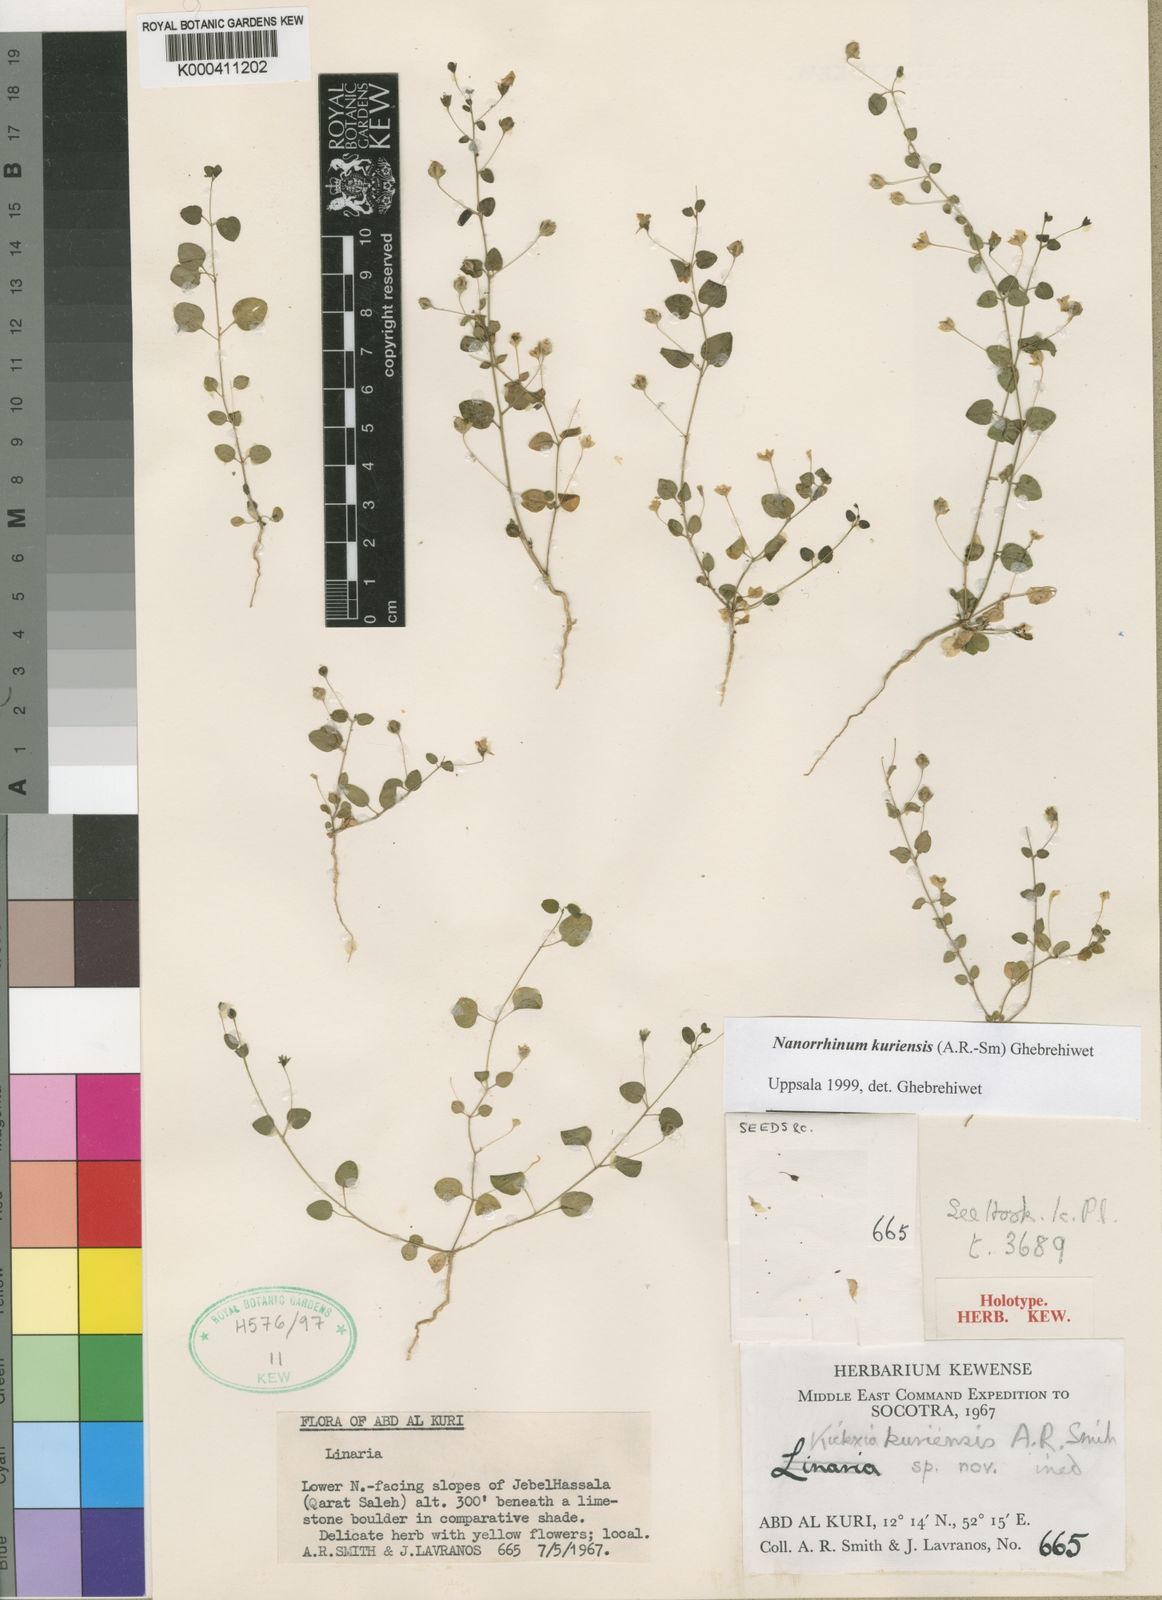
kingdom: Plantae
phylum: Tracheophyta
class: Magnoliopsida
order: Lamiales
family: Plantaginaceae
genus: Linaria
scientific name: Linaria
